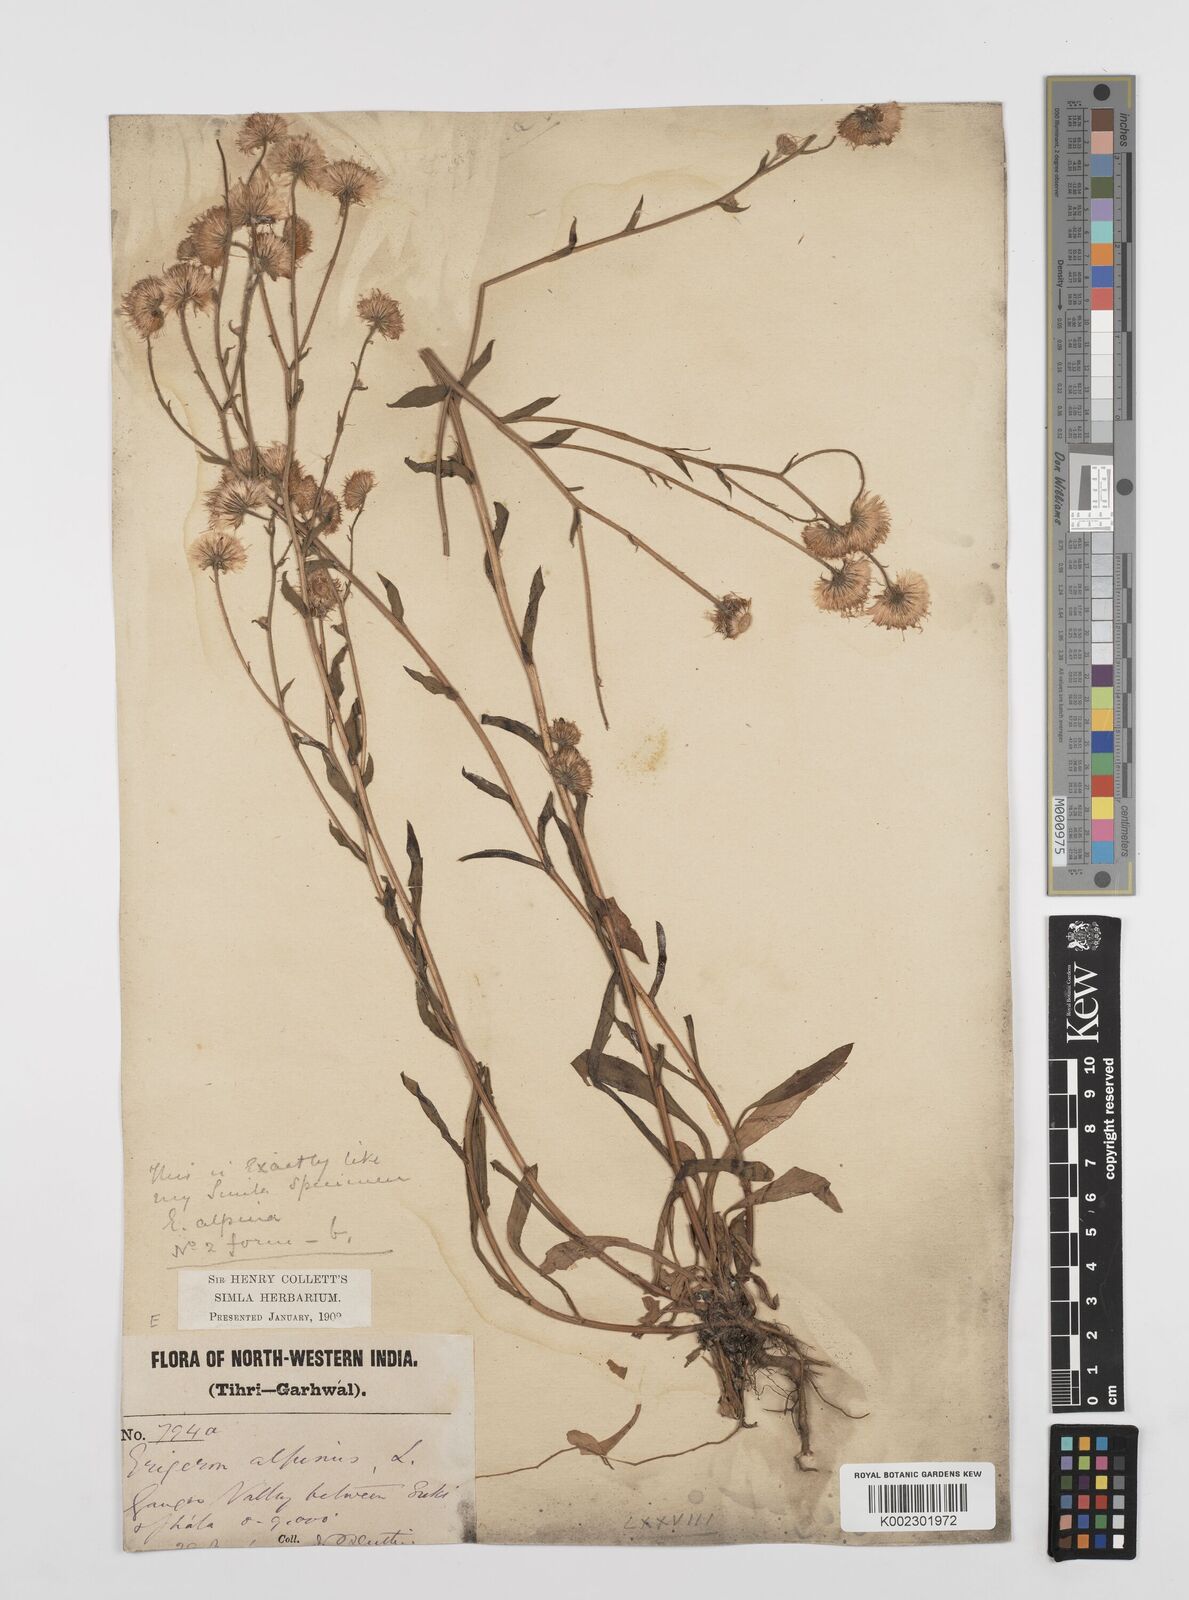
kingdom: Plantae
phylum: Tracheophyta
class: Magnoliopsida
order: Asterales
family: Asteraceae
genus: Erigeron
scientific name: Erigeron alpinus
